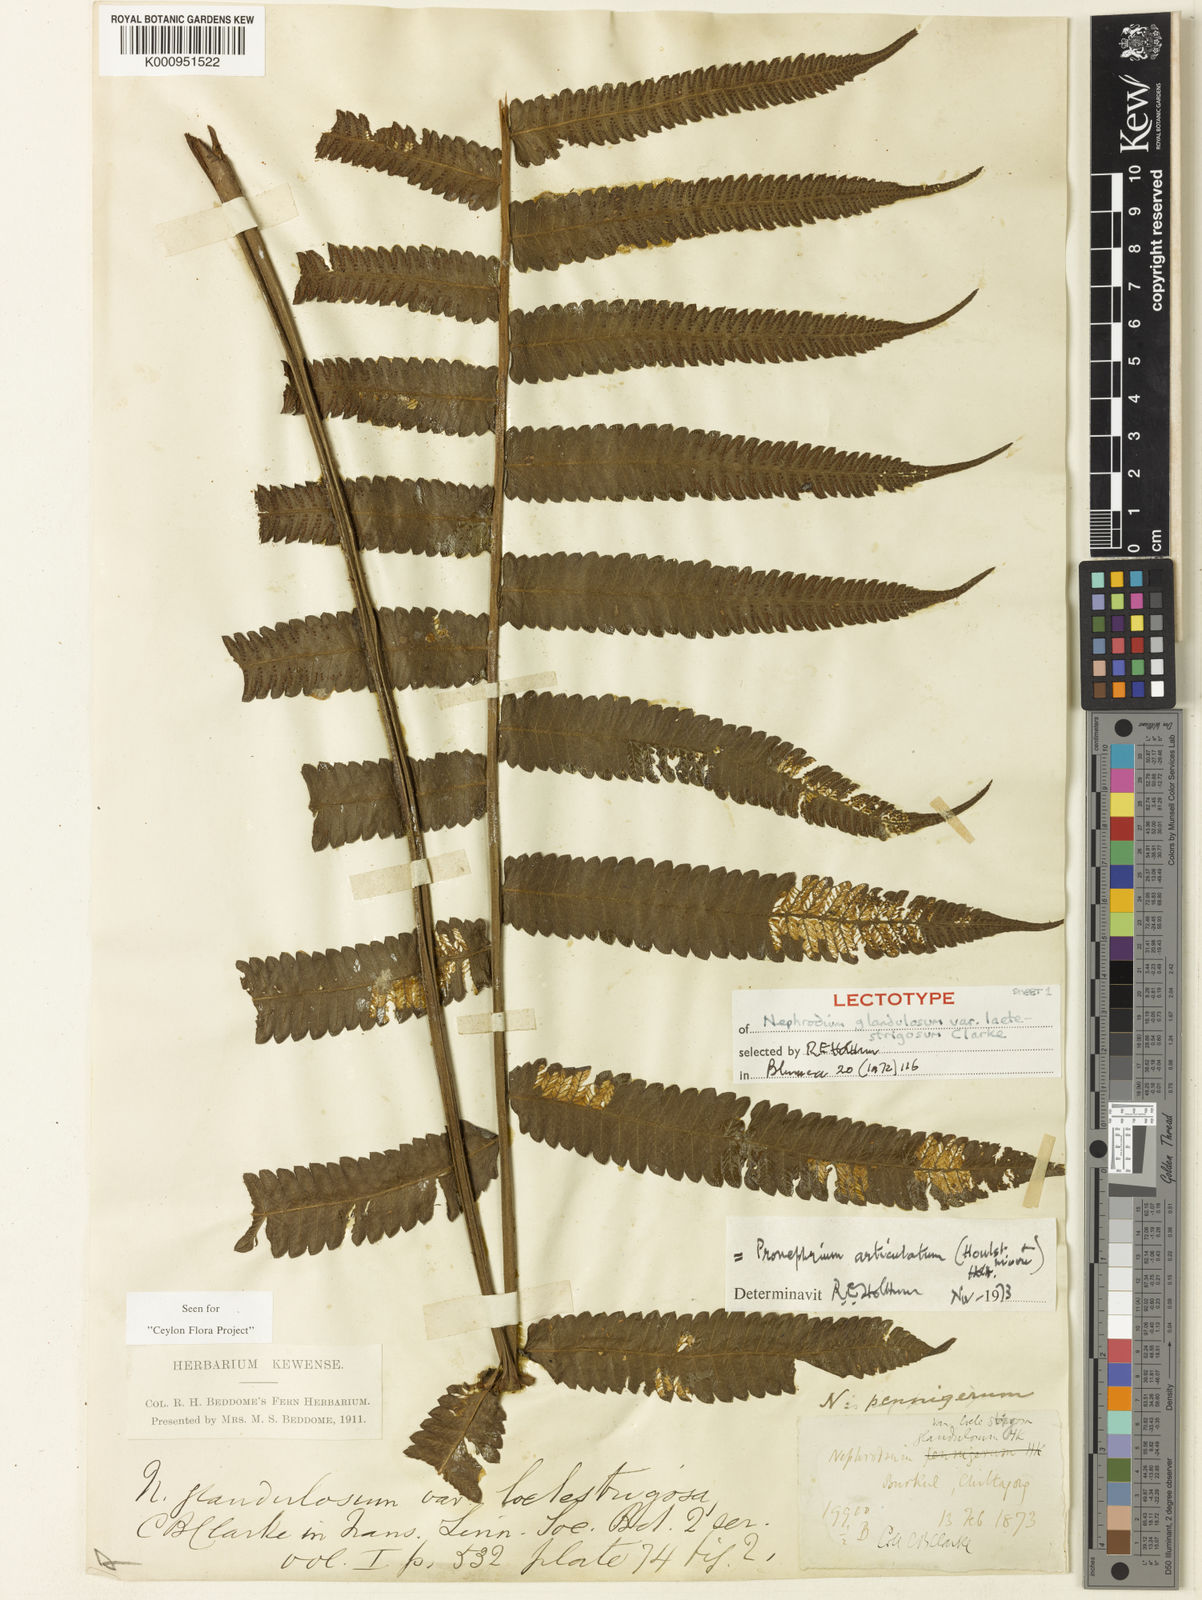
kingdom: Plantae
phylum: Tracheophyta
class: Polypodiopsida
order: Polypodiales
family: Thelypteridaceae
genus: Christella
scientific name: Christella euphlebia
